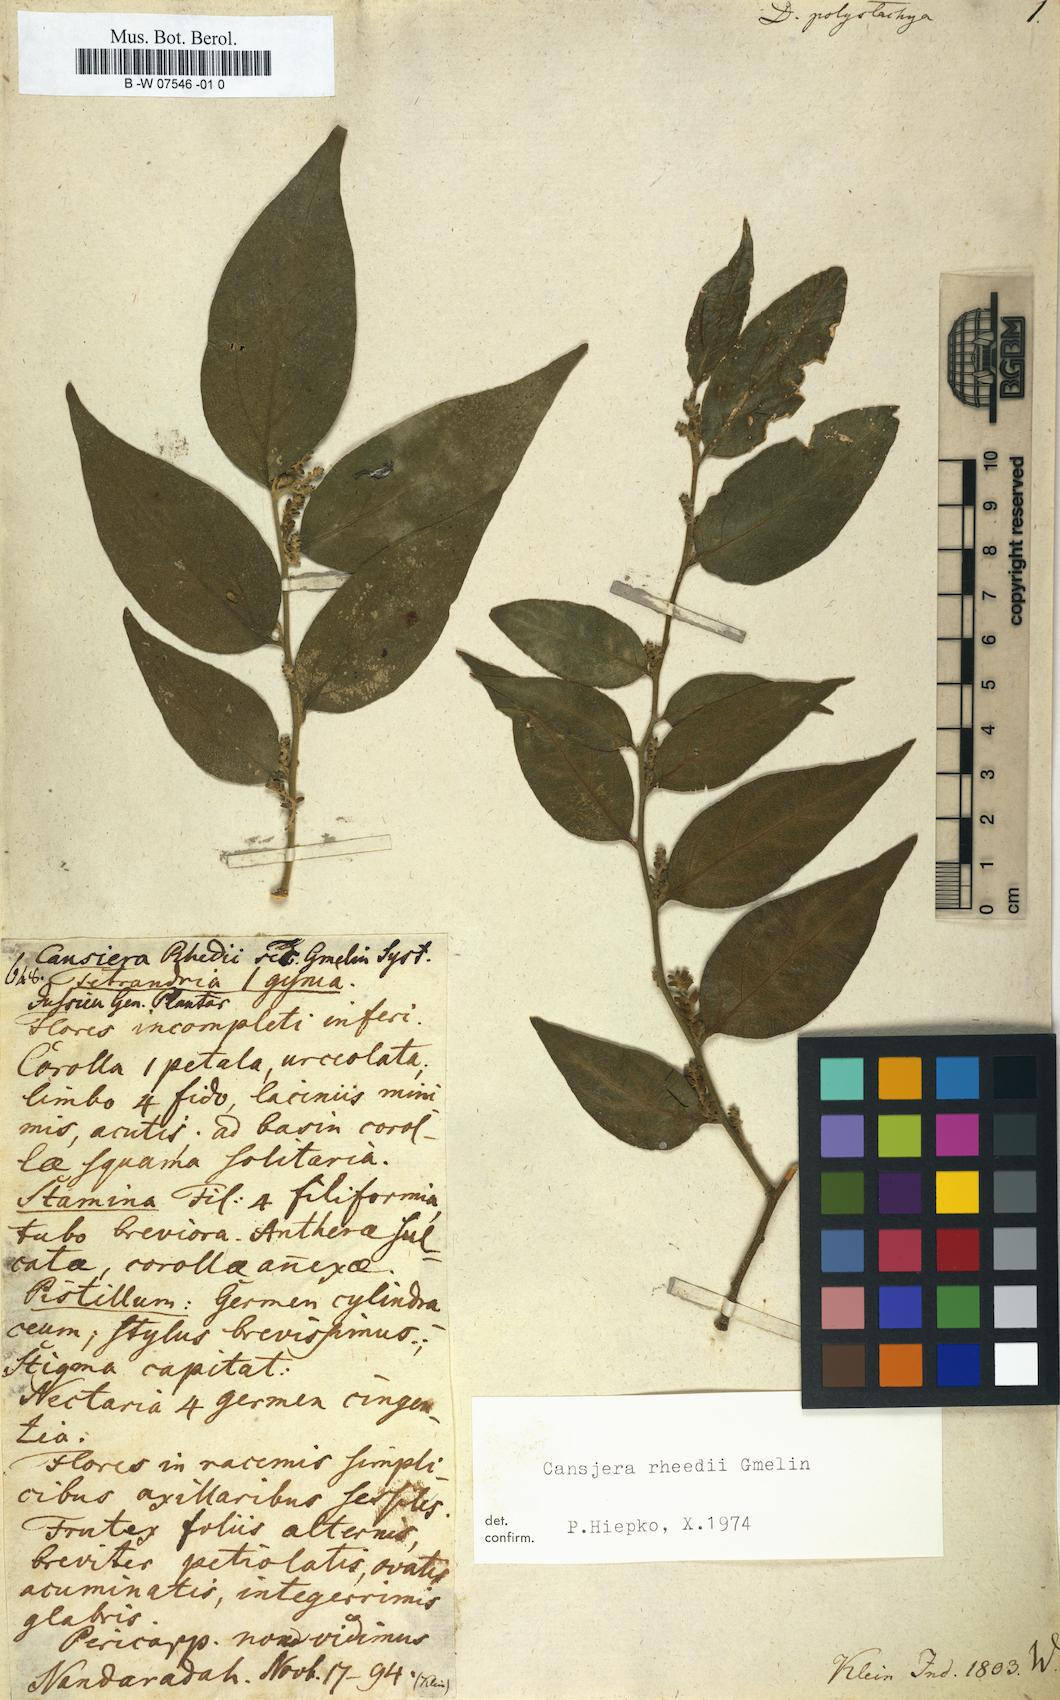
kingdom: Plantae
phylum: Tracheophyta
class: Magnoliopsida
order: Santalales
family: Opiliaceae
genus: Cansjera
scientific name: Cansjera rheedei
